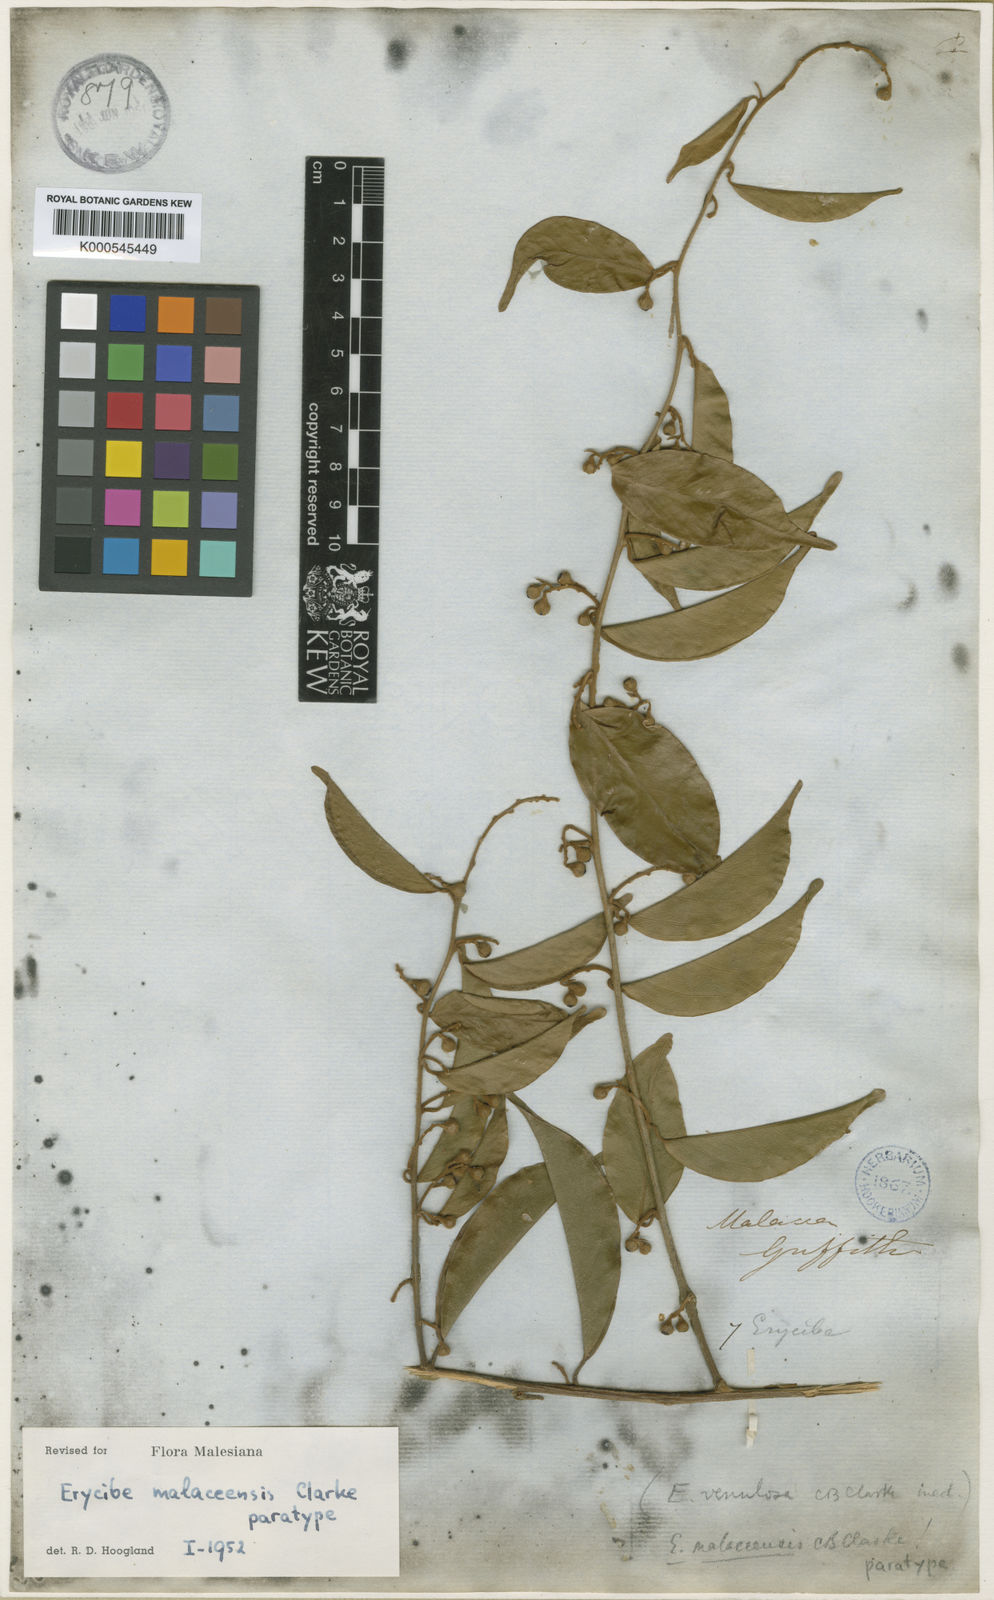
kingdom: Plantae
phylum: Tracheophyta
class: Magnoliopsida
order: Solanales
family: Convolvulaceae
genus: Erycibe
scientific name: Erycibe malaccensis
